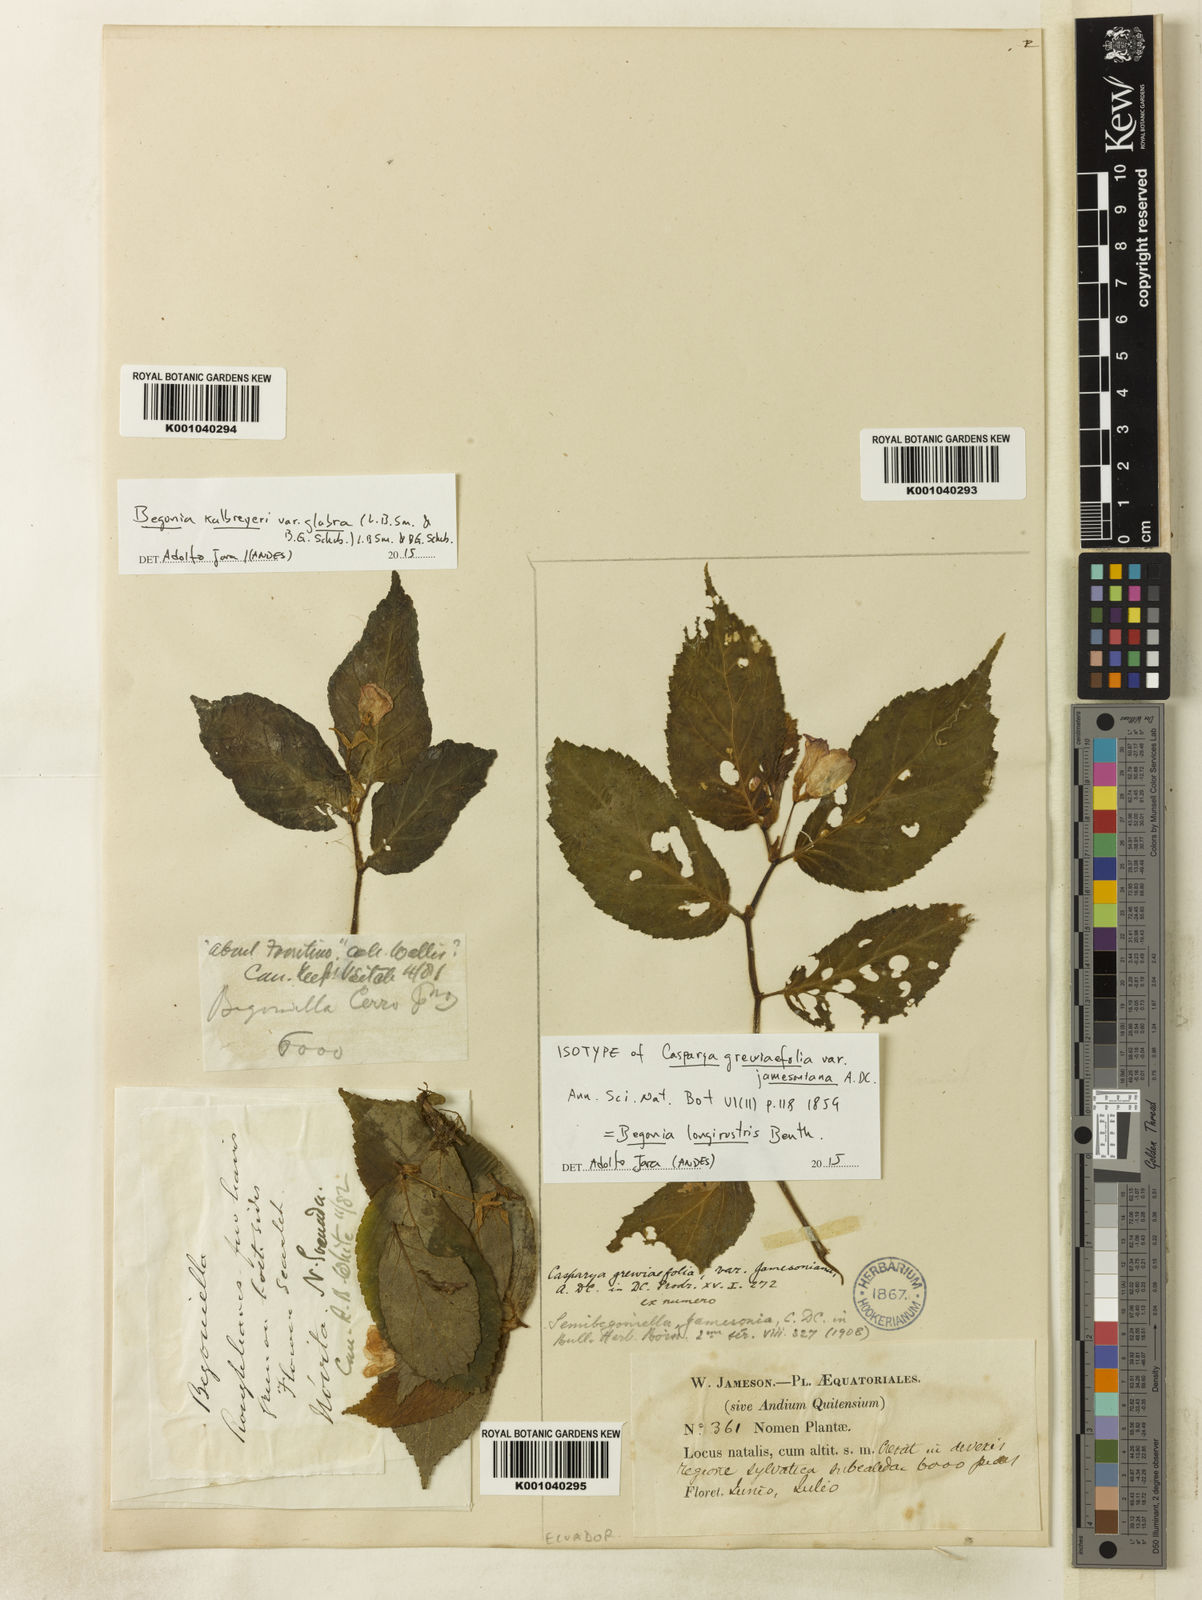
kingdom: Plantae
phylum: Tracheophyta
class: Magnoliopsida
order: Cucurbitales
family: Begoniaceae
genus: Begonia
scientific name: Begonia kalbreyeri
